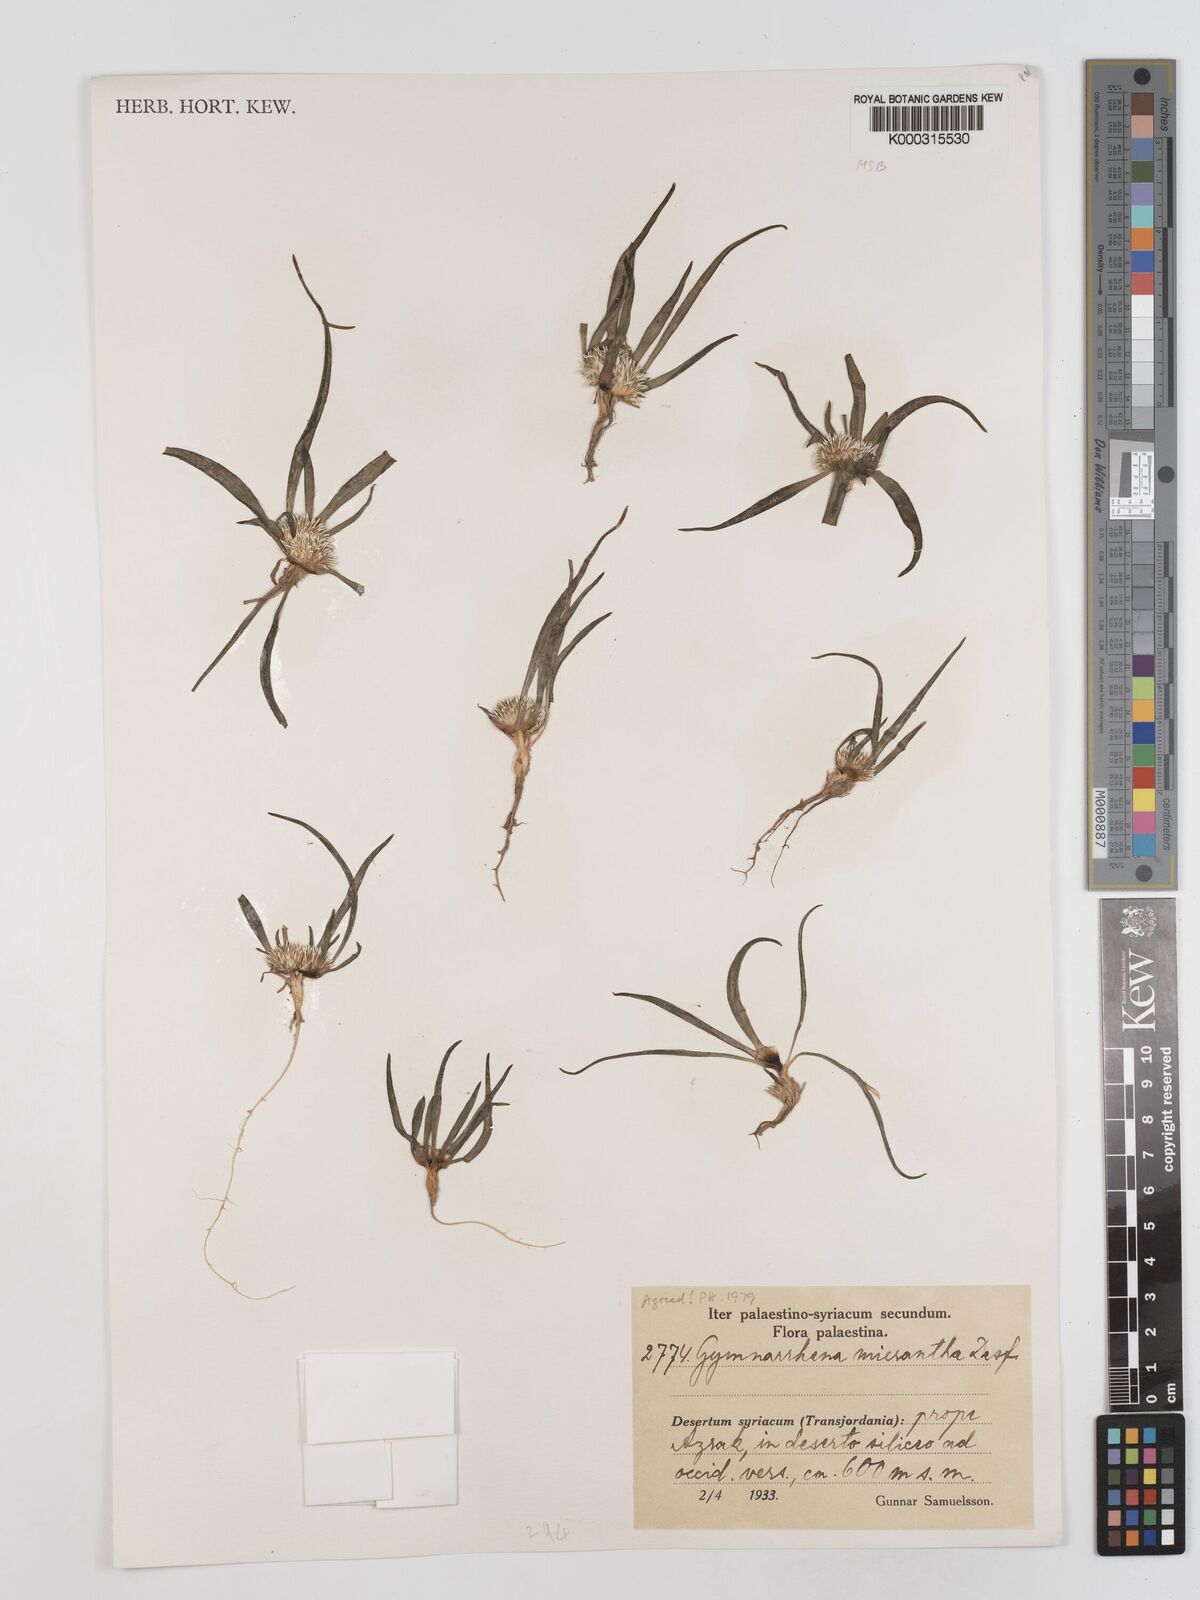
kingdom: Plantae
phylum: Tracheophyta
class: Magnoliopsida
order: Asterales
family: Asteraceae
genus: Gymnarrhena
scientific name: Gymnarrhena micrantha
